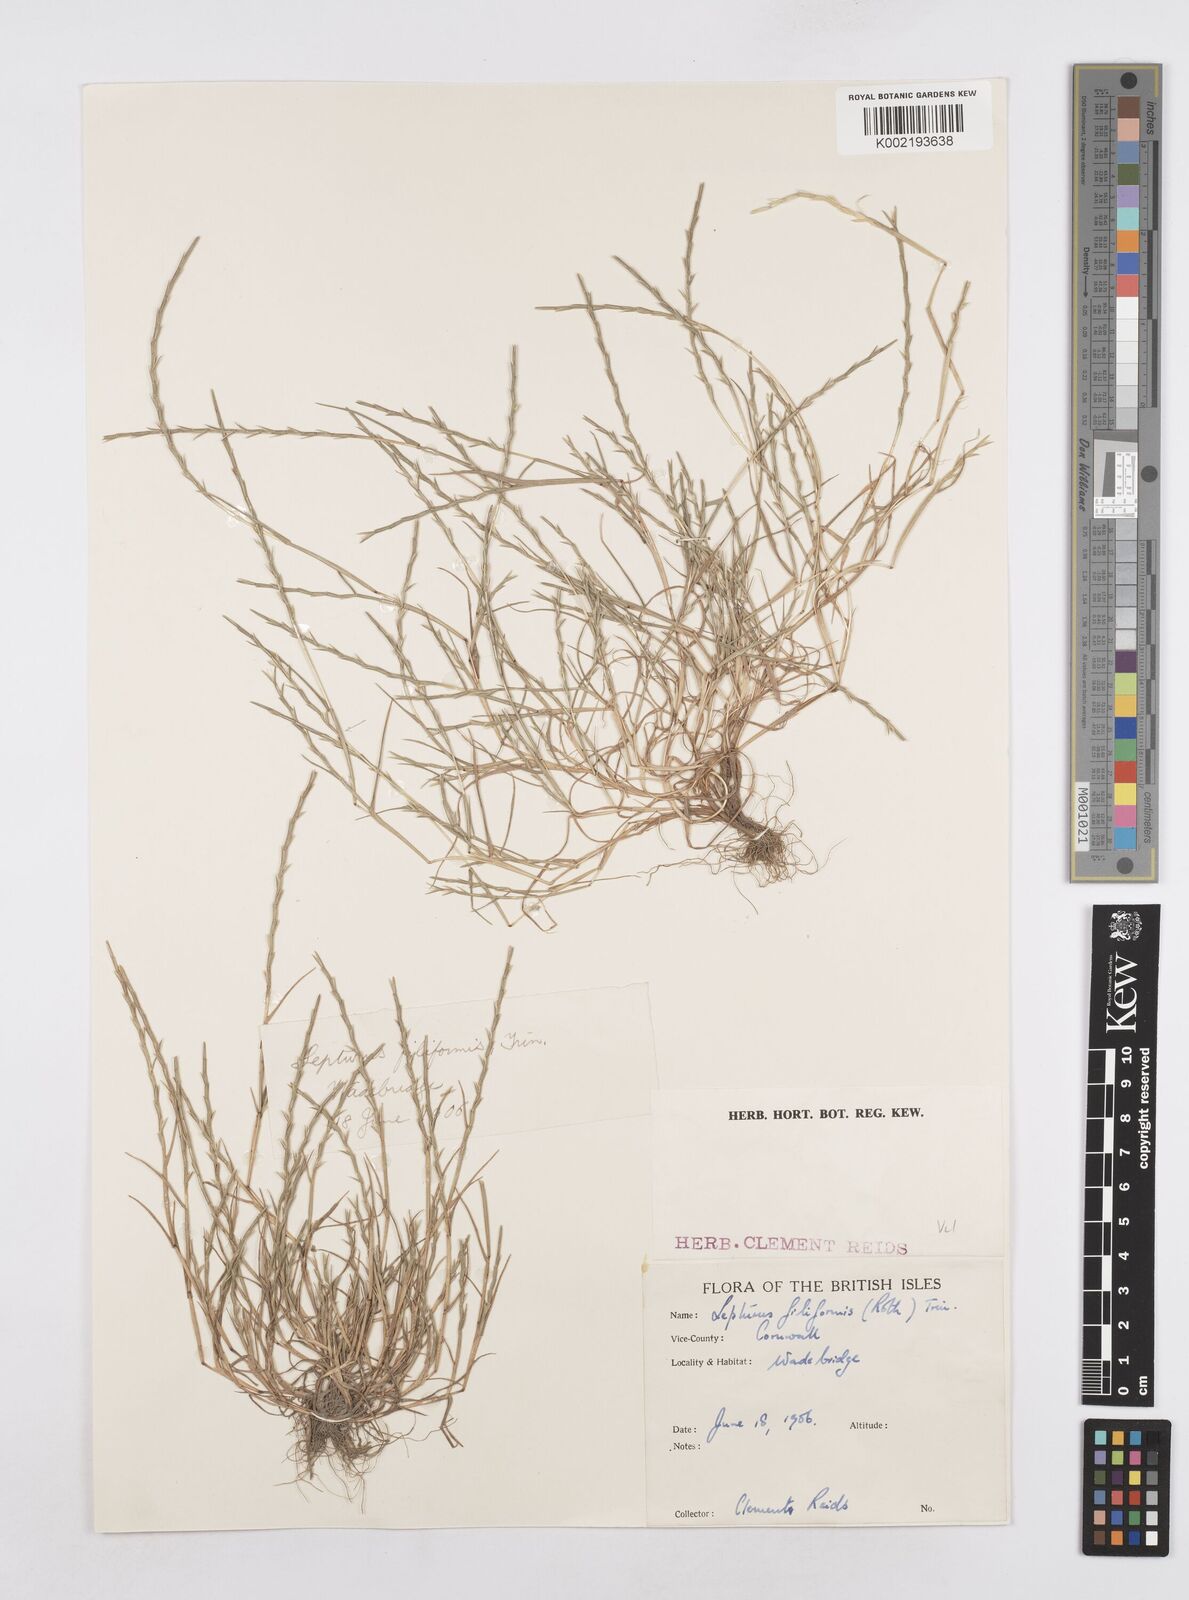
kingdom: Plantae
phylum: Tracheophyta
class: Liliopsida
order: Poales
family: Poaceae
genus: Parapholis
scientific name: Parapholis strigosa
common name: Hard-grass
